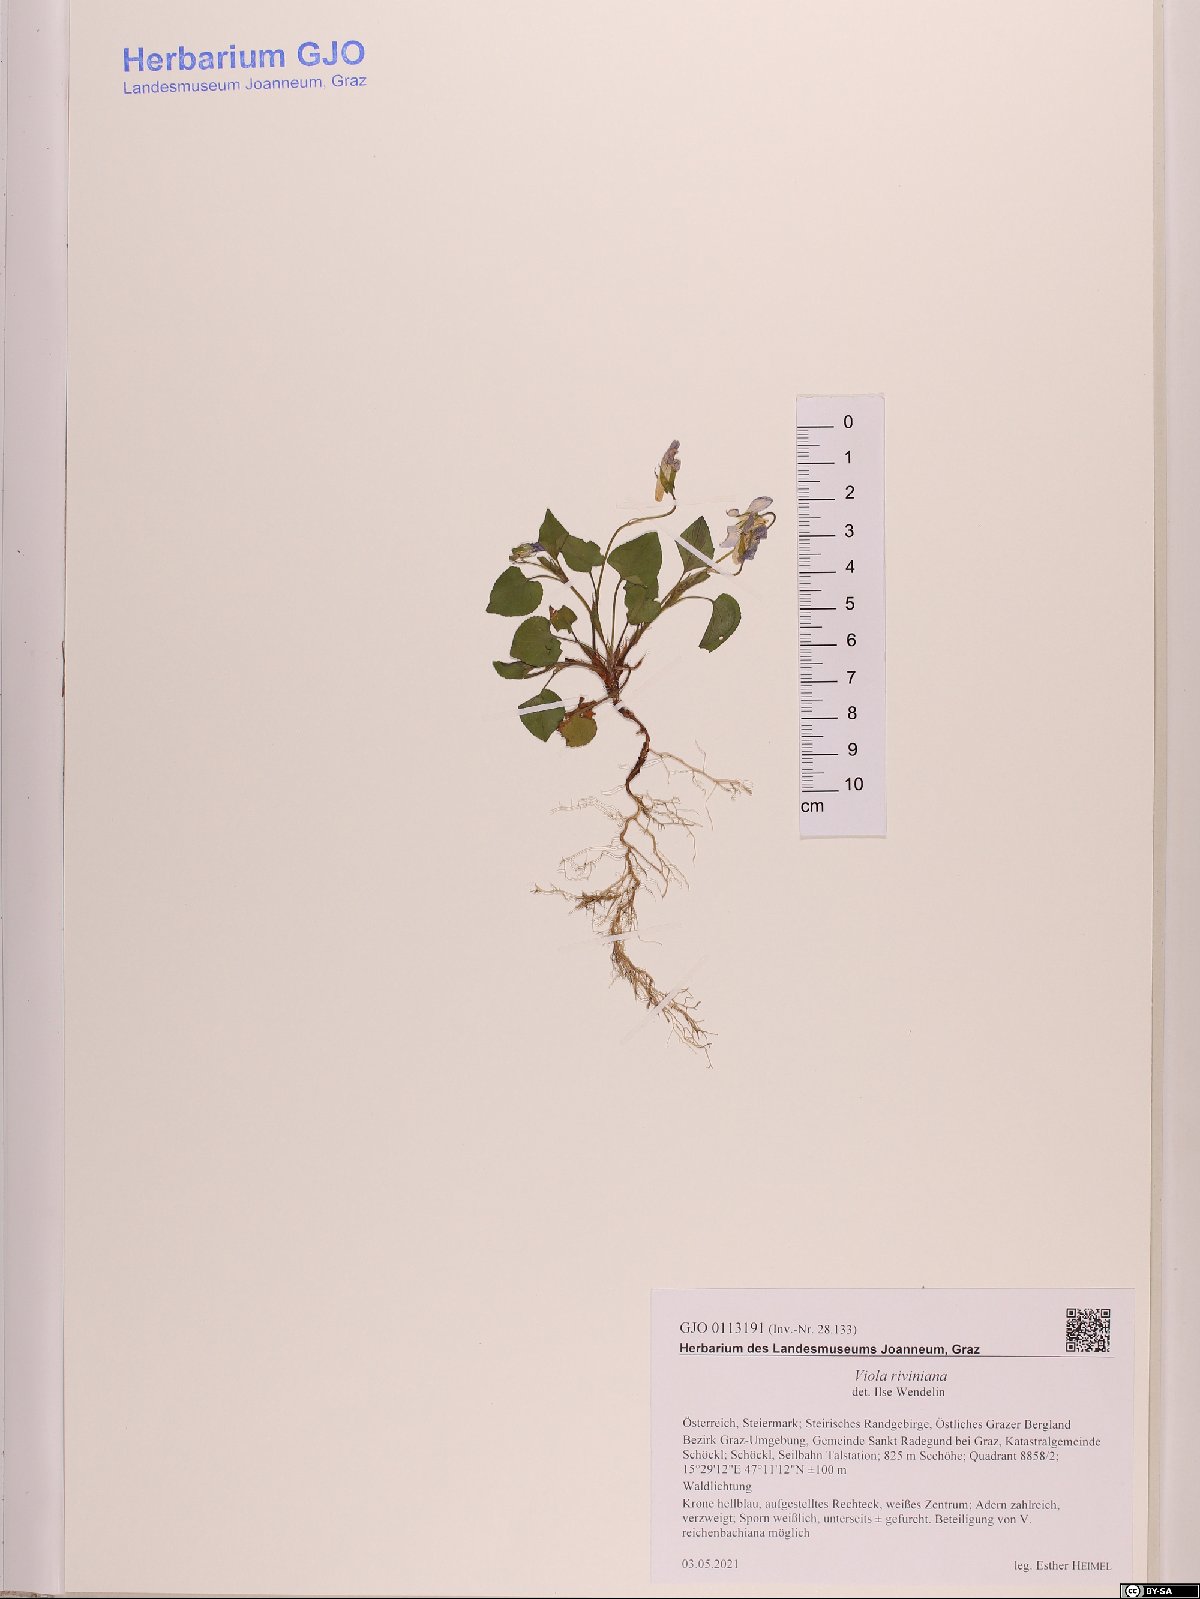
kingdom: Plantae
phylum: Tracheophyta
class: Magnoliopsida
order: Malpighiales
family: Violaceae
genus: Viola
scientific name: Viola riviniana
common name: Common dog-violet
